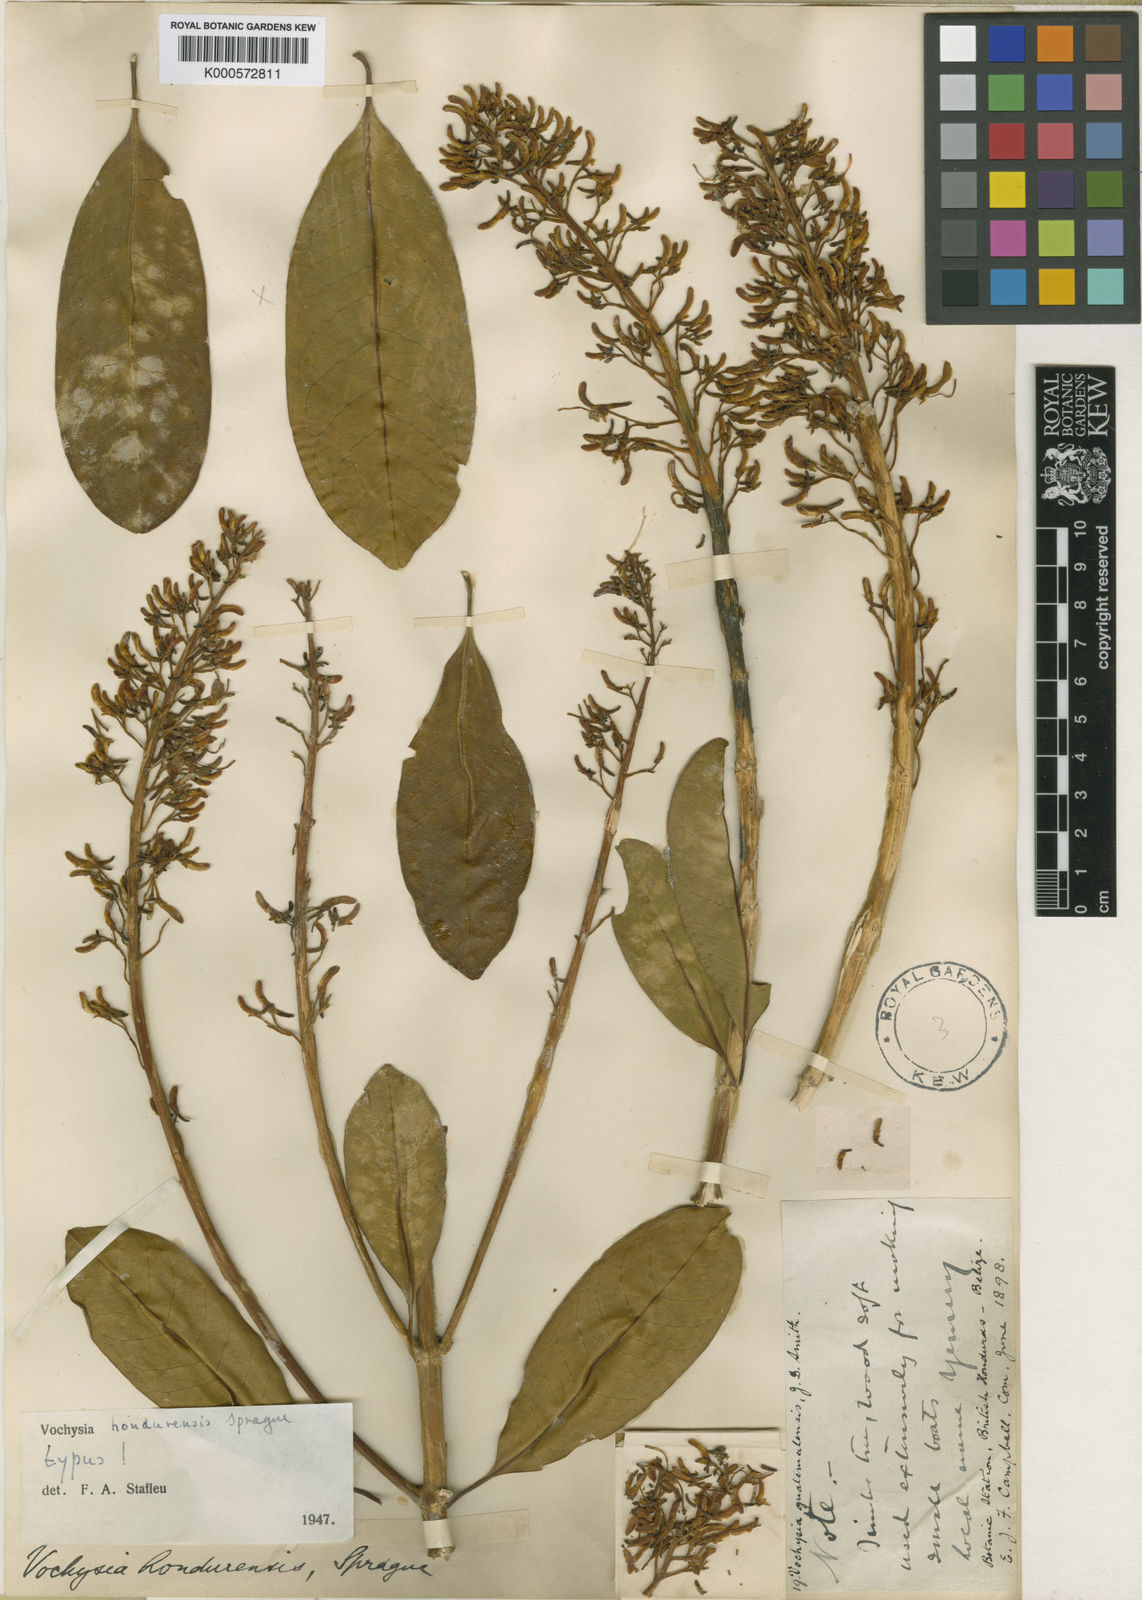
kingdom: Plantae
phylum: Tracheophyta
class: Magnoliopsida
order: Myrtales
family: Vochysiaceae
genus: Vochysia
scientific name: Vochysia guatemalensis
